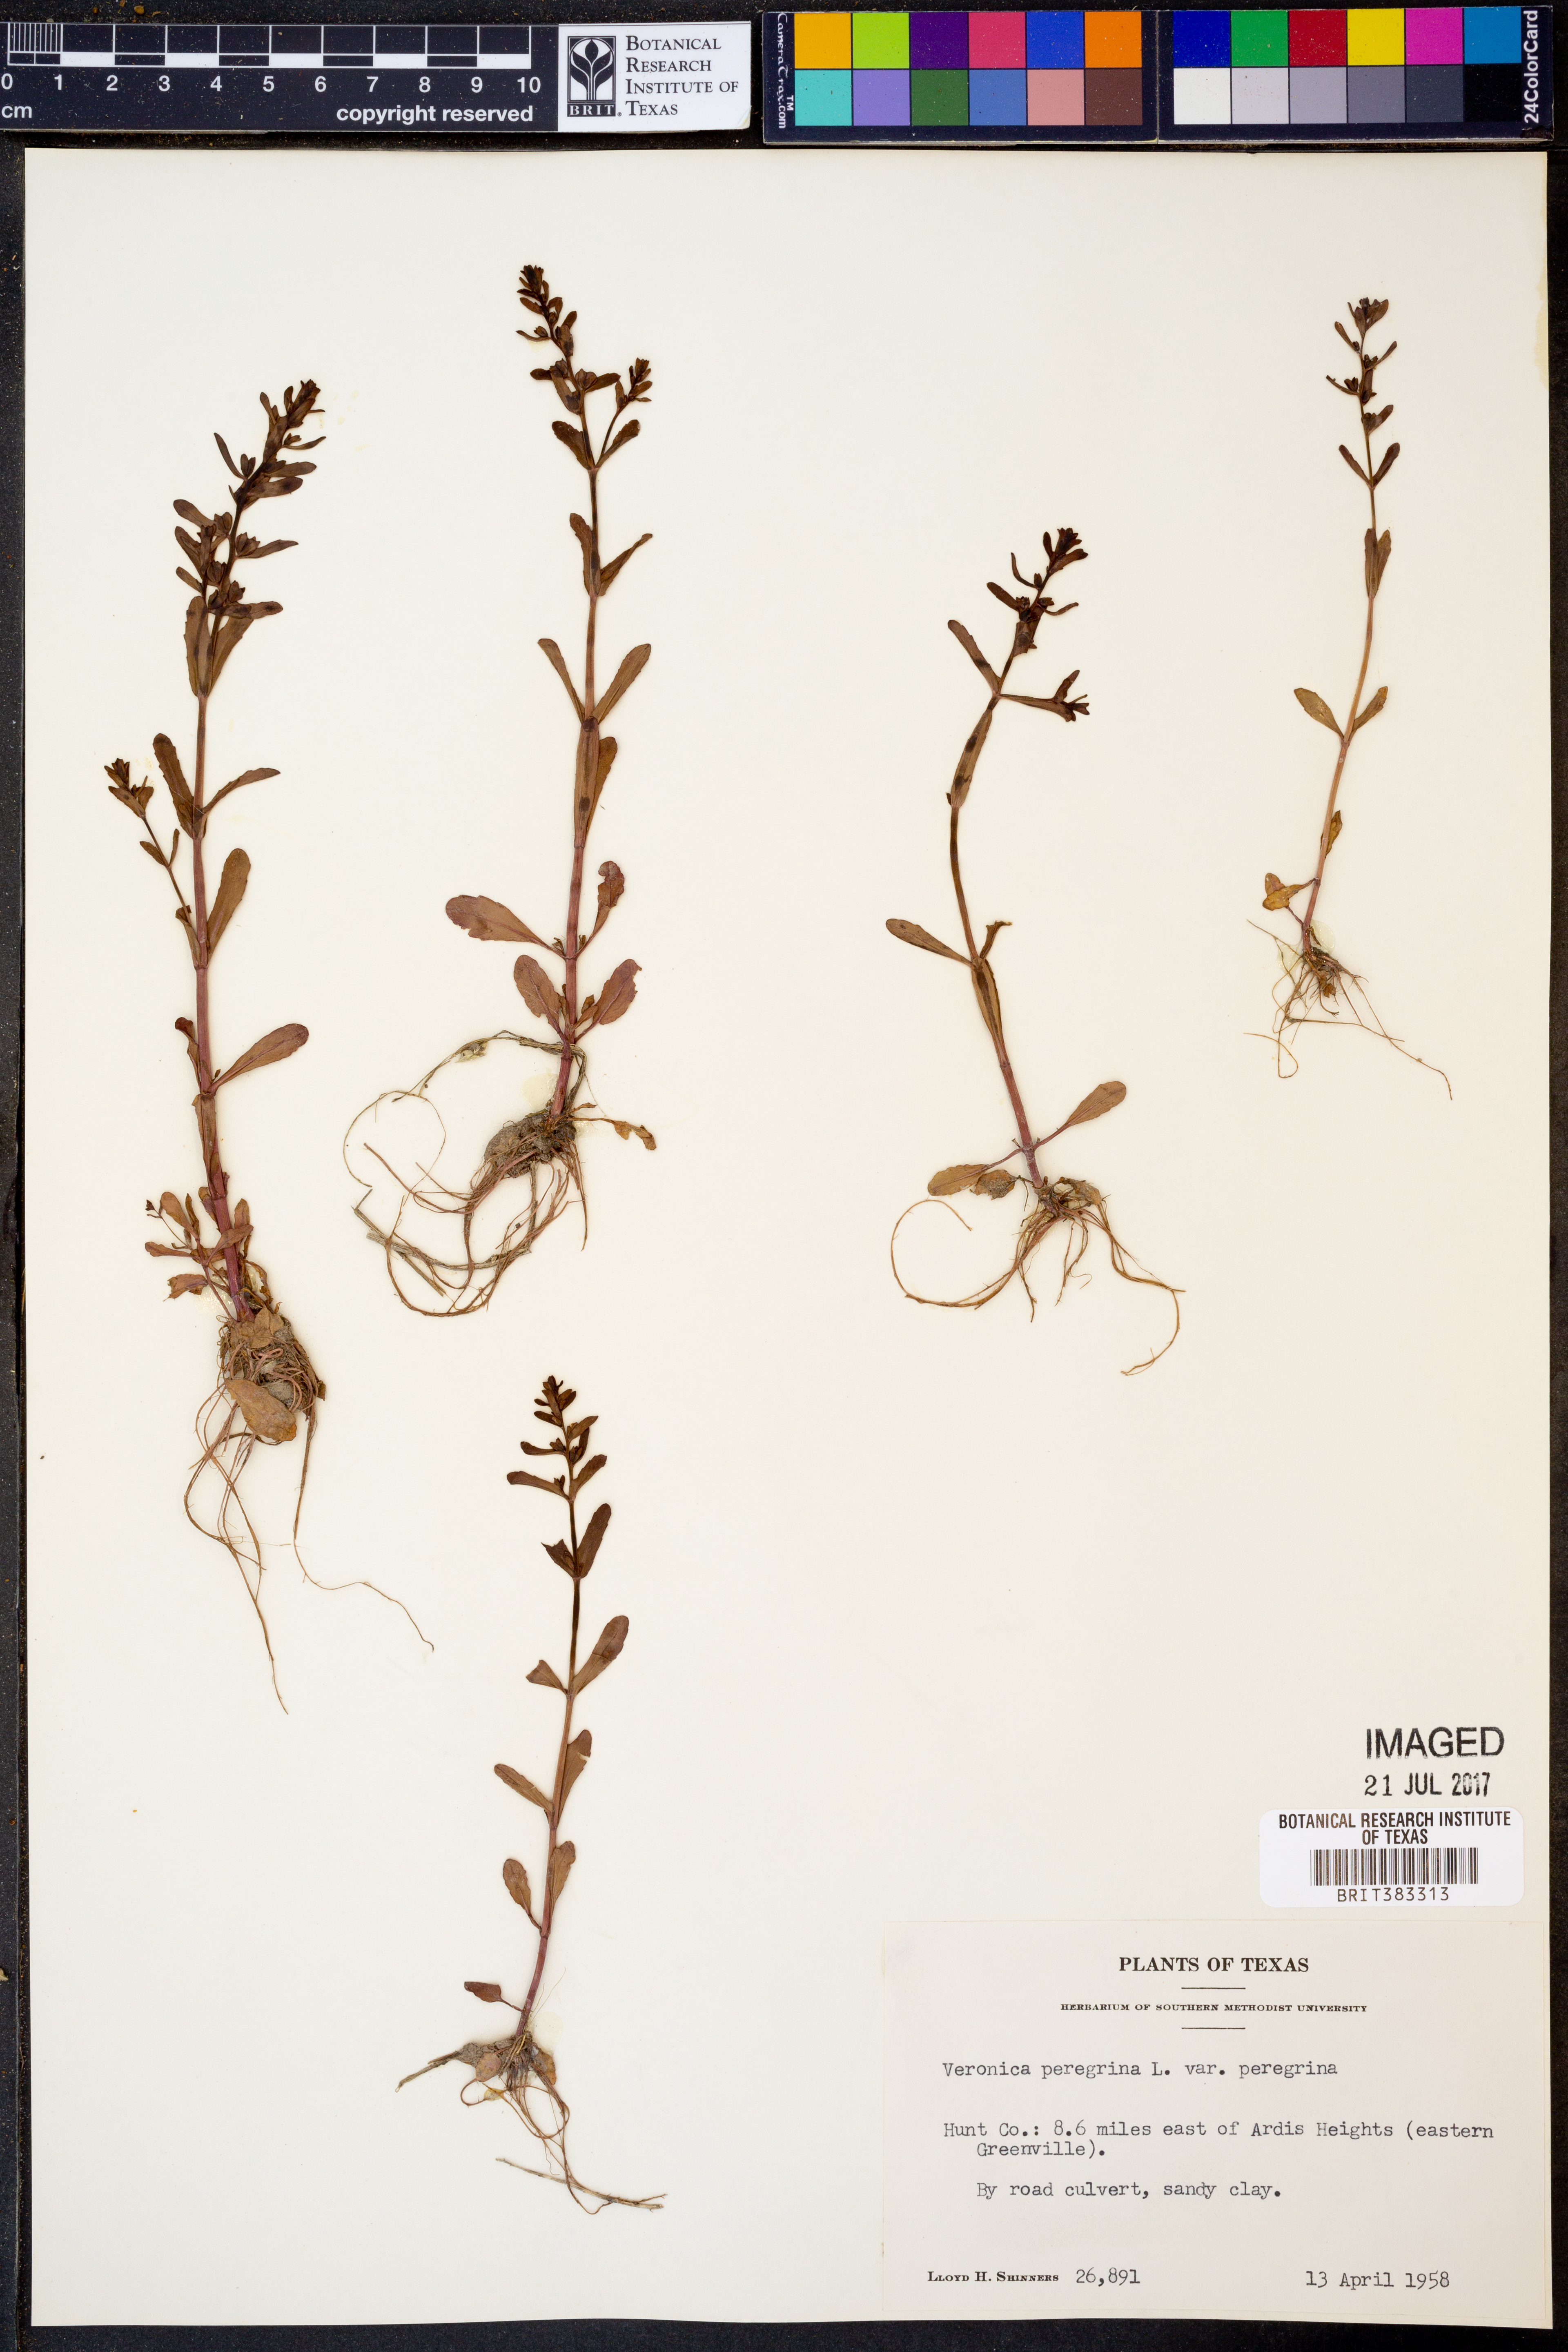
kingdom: Plantae
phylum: Tracheophyta
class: Magnoliopsida
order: Lamiales
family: Plantaginaceae
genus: Veronica
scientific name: Veronica peregrina
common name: Neckweed
